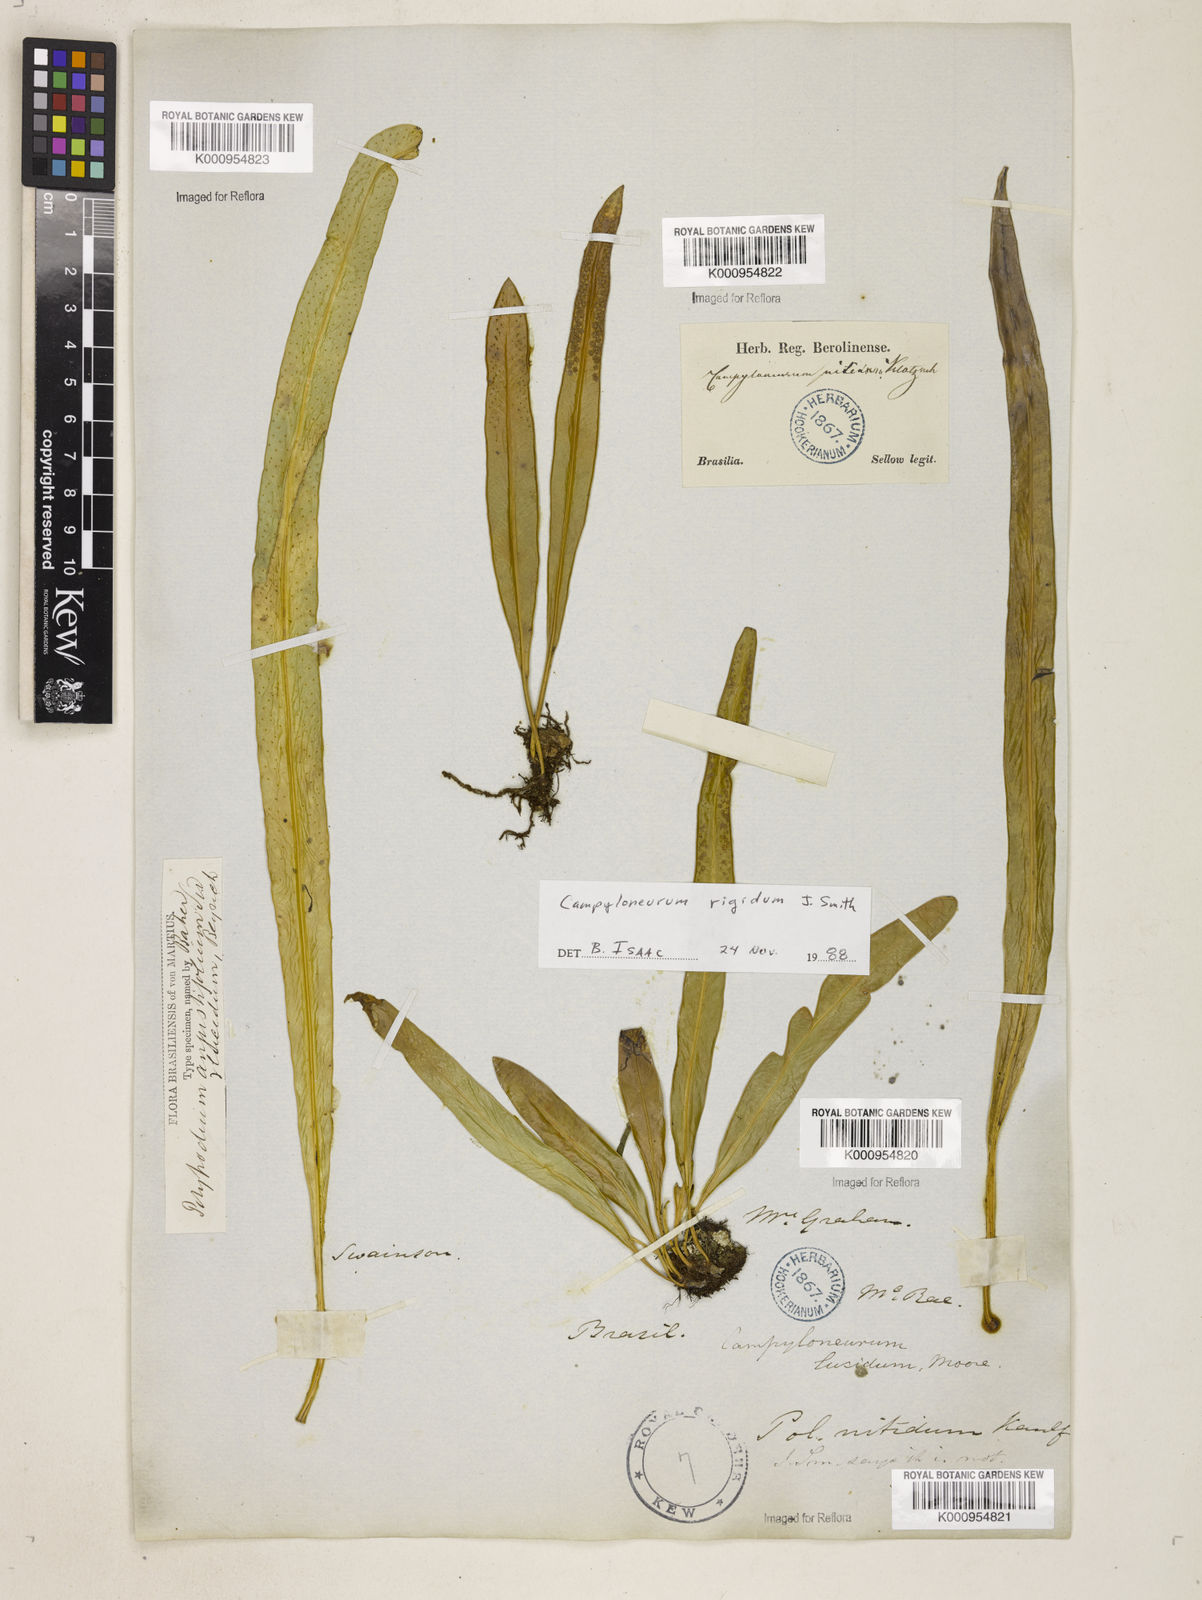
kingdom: Plantae
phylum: Tracheophyta
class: Polypodiopsida
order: Polypodiales
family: Polypodiaceae
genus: Campyloneurum
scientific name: Campyloneurum rigidum
